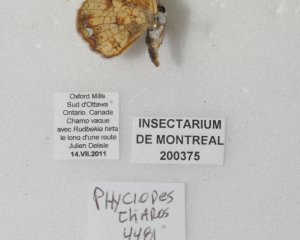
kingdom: Animalia
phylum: Arthropoda
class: Insecta
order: Lepidoptera
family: Nymphalidae
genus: Phyciodes
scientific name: Phyciodes tharos
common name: Pearl Crescent
